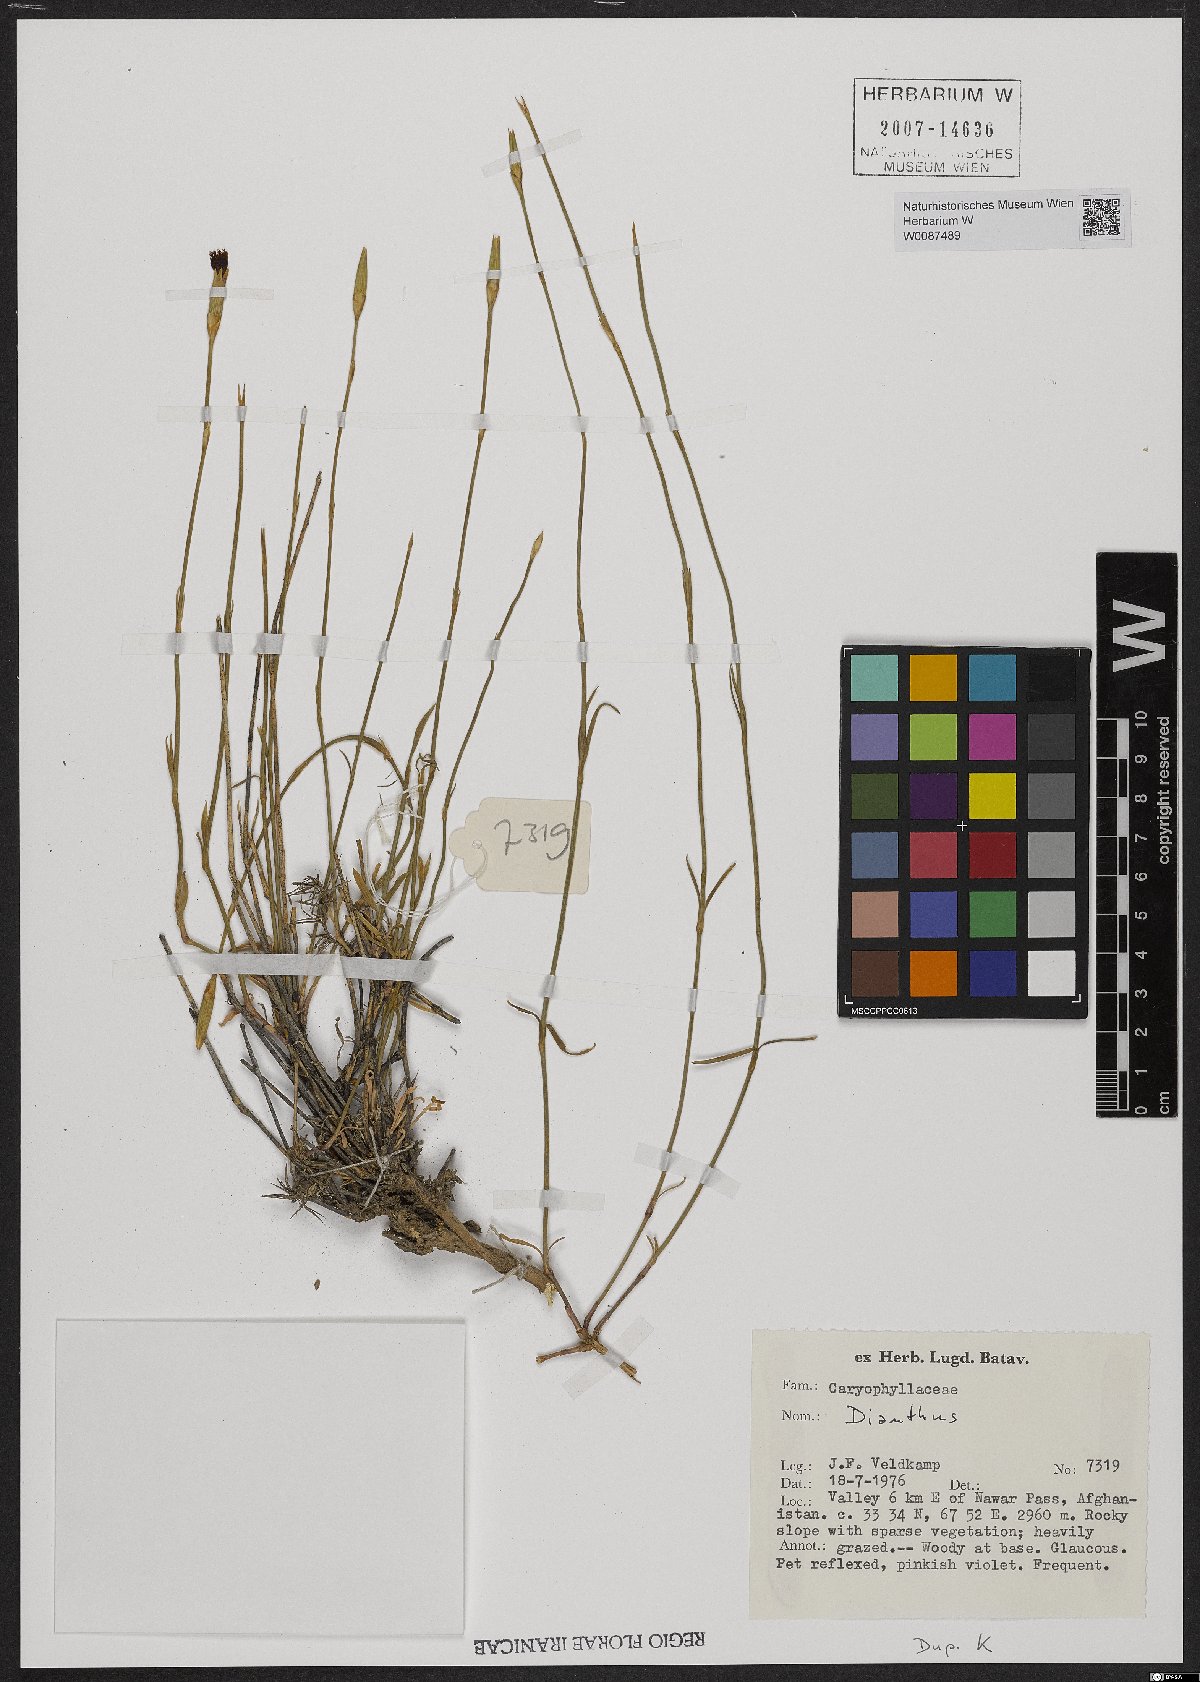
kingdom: Plantae
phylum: Tracheophyta
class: Magnoliopsida
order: Caryophyllales
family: Caryophyllaceae
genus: Dianthus
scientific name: Dianthus
